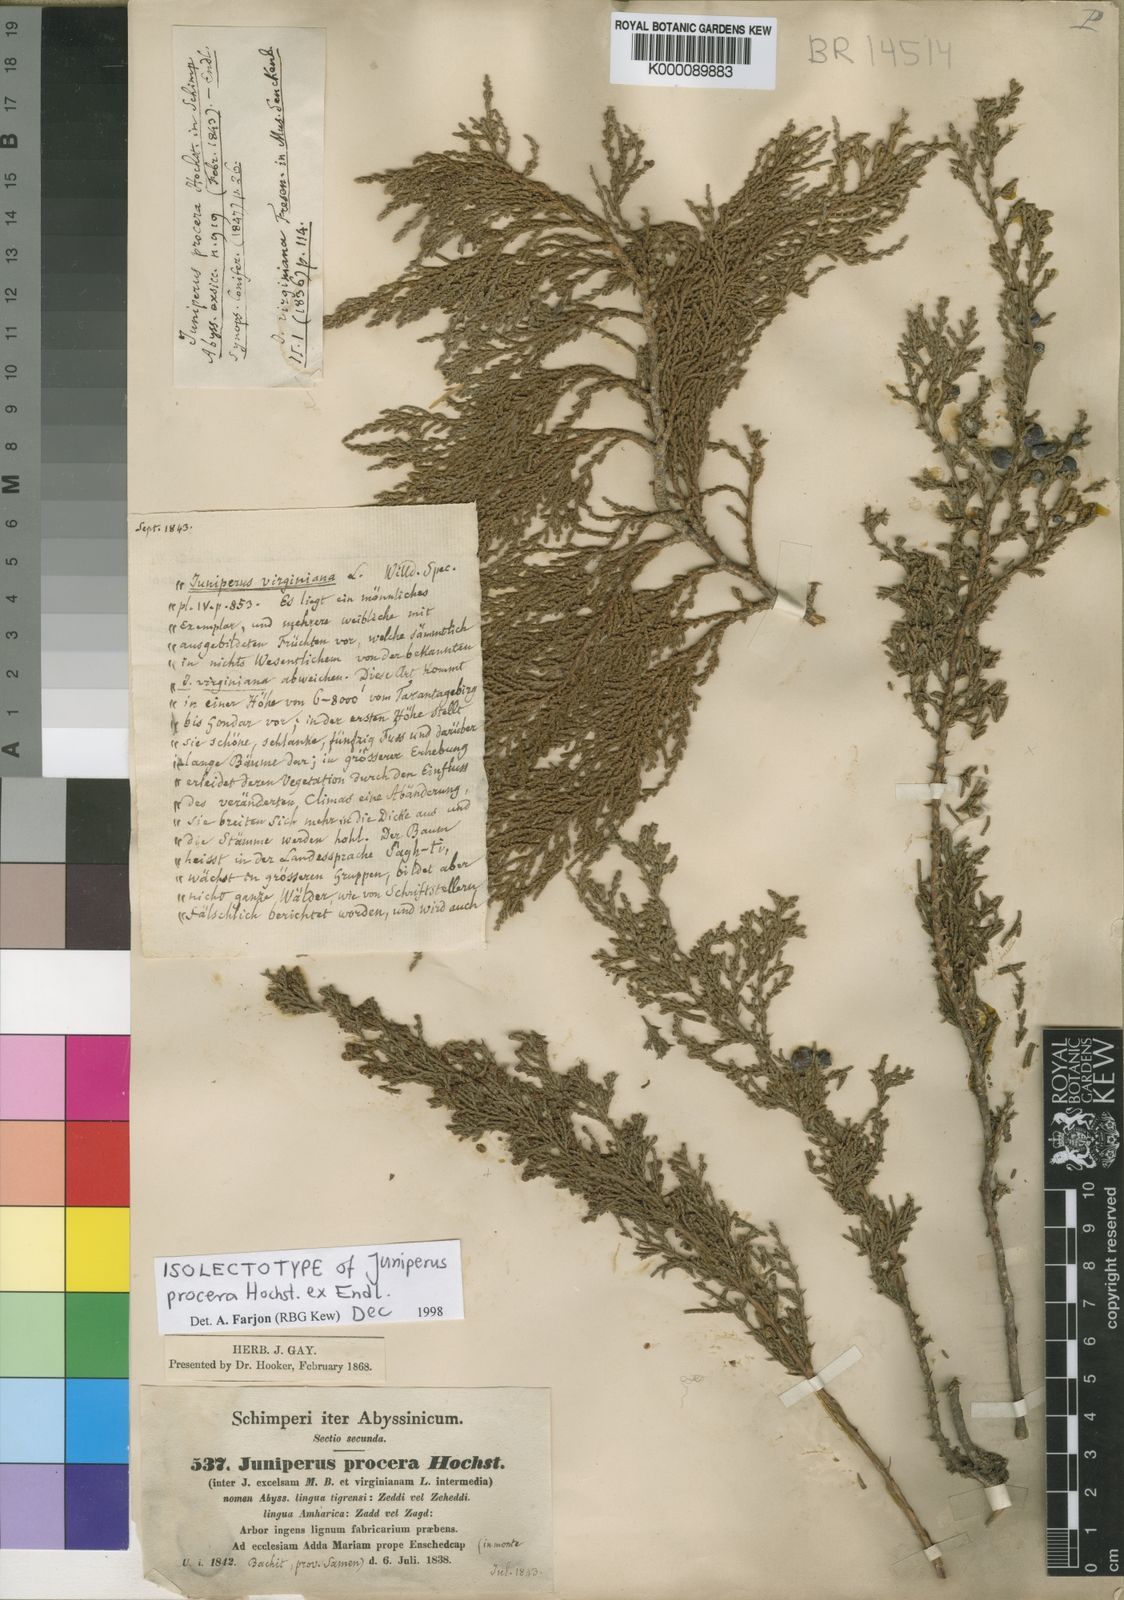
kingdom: Plantae
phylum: Tracheophyta
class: Pinopsida
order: Pinales
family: Cupressaceae
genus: Juniperus
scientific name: Juniperus procera
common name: African juniper
